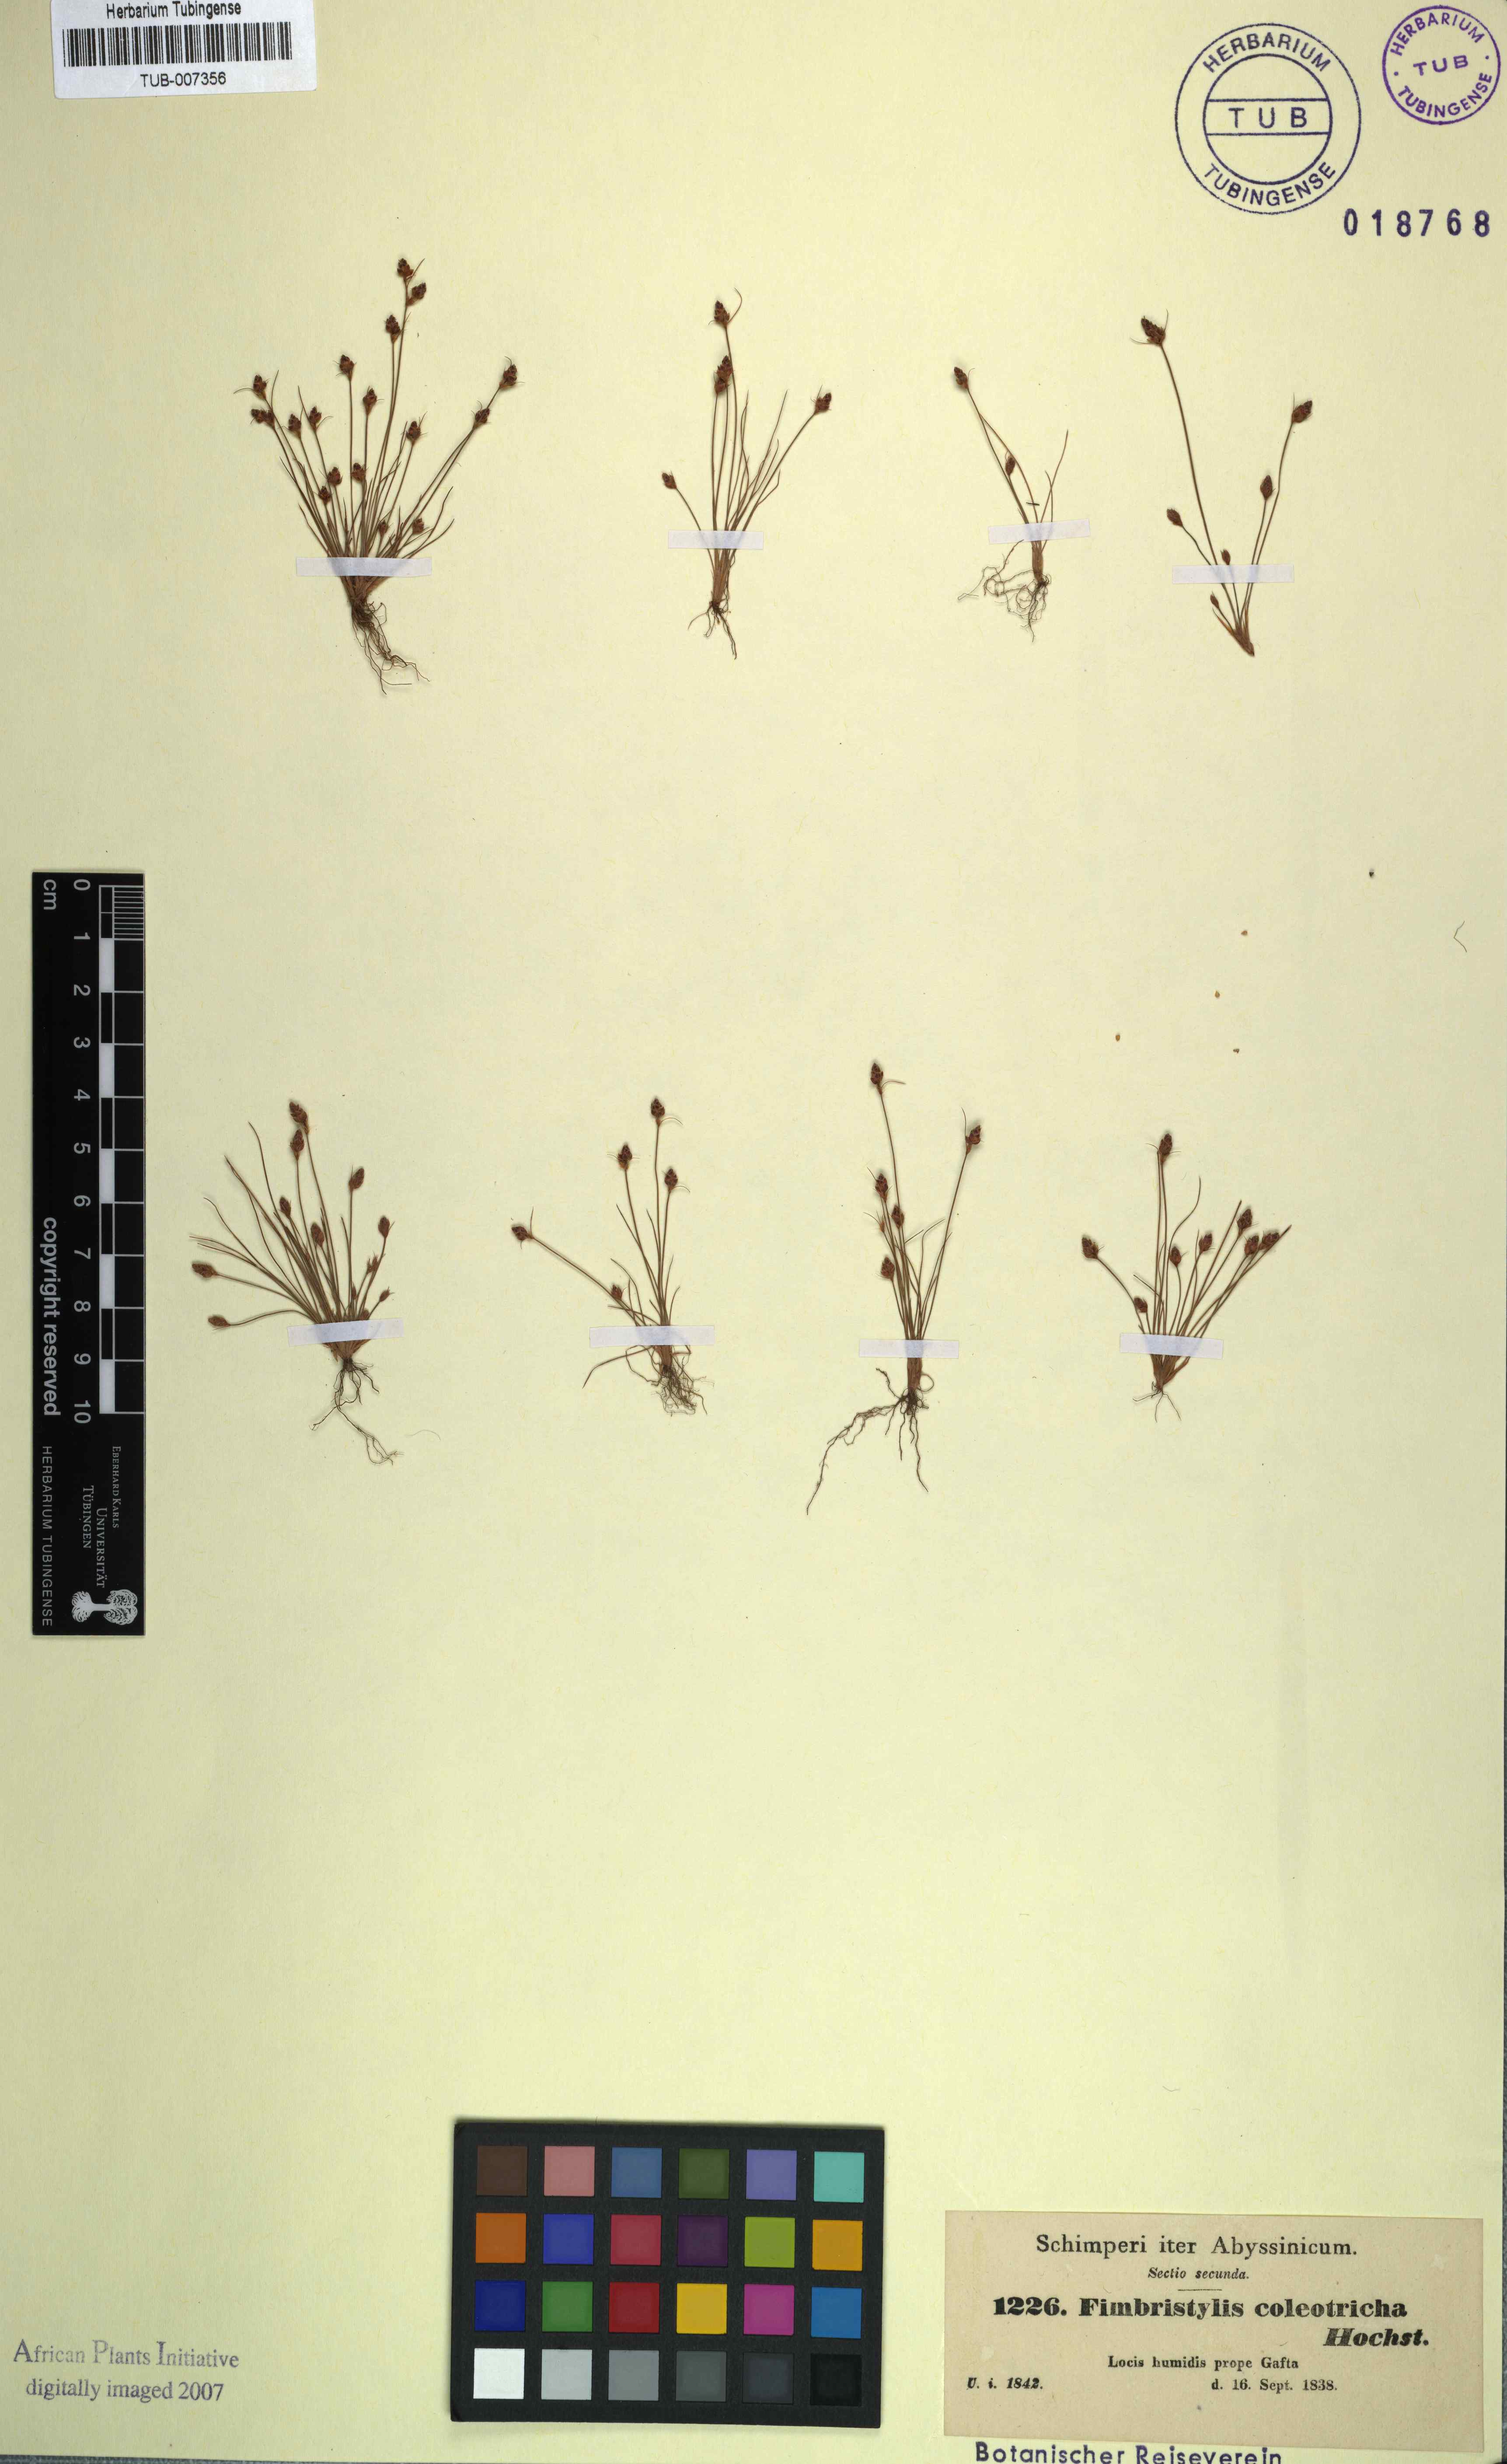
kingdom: Plantae
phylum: Tracheophyta
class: Liliopsida
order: Poales
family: Cyperaceae
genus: Bulbostylis
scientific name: Bulbostylis coleotricha
